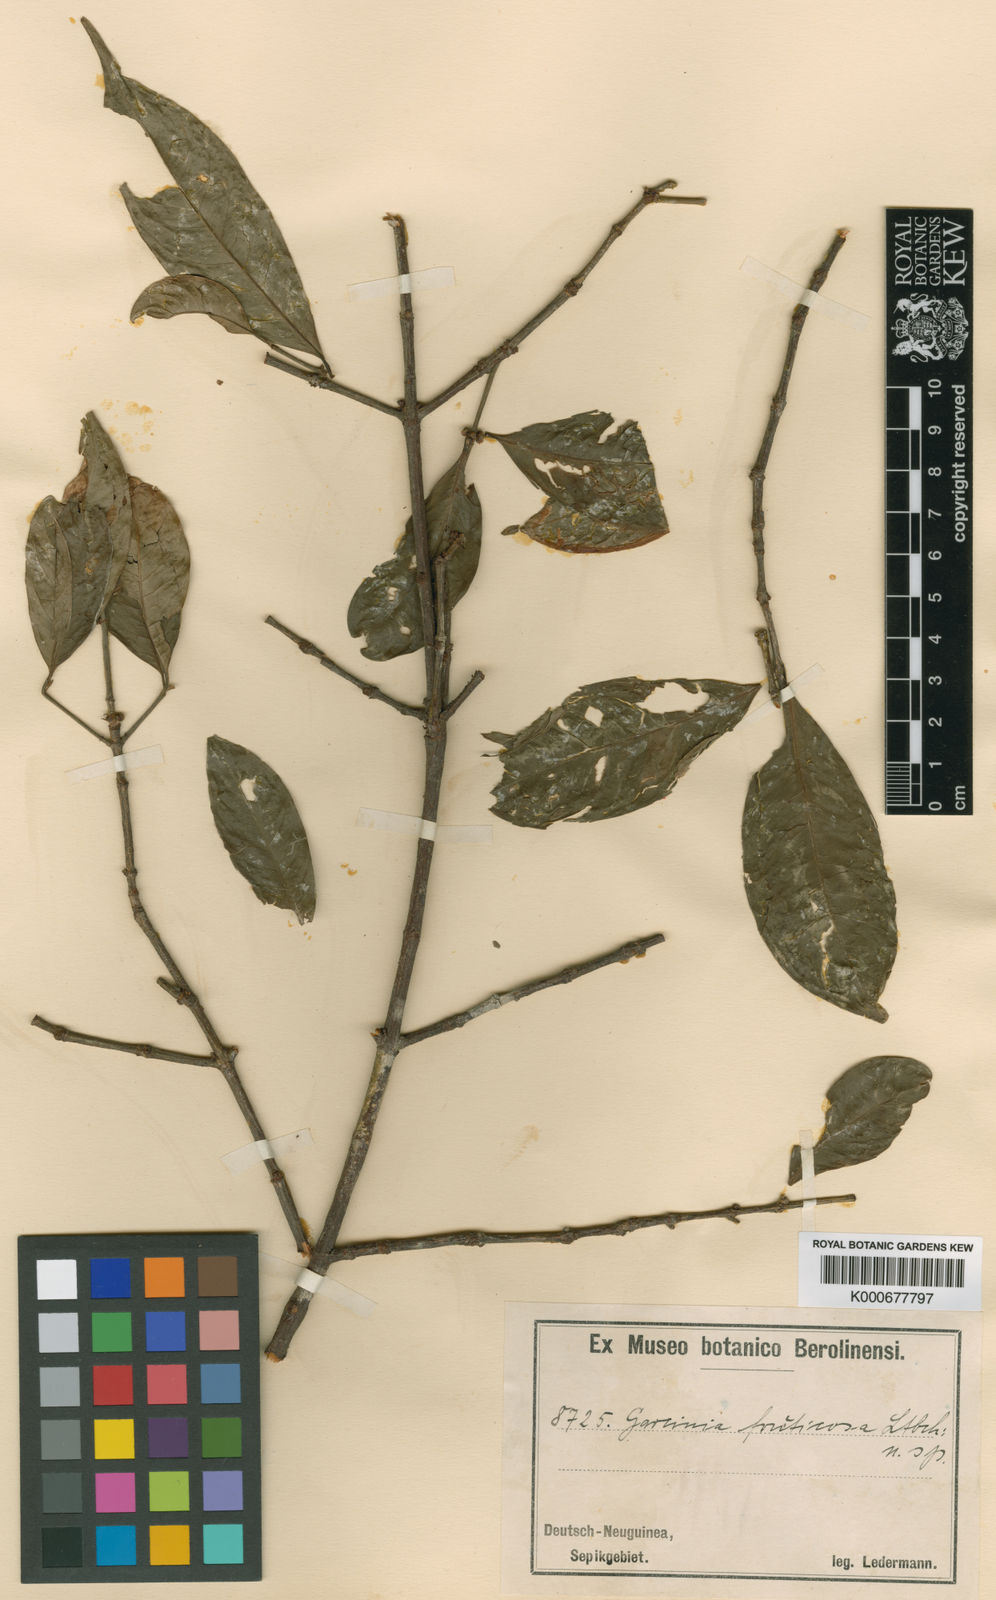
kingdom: Plantae
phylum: Tracheophyta
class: Magnoliopsida
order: Malpighiales
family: Clusiaceae
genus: Garcinia
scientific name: Garcinia fruticosa
